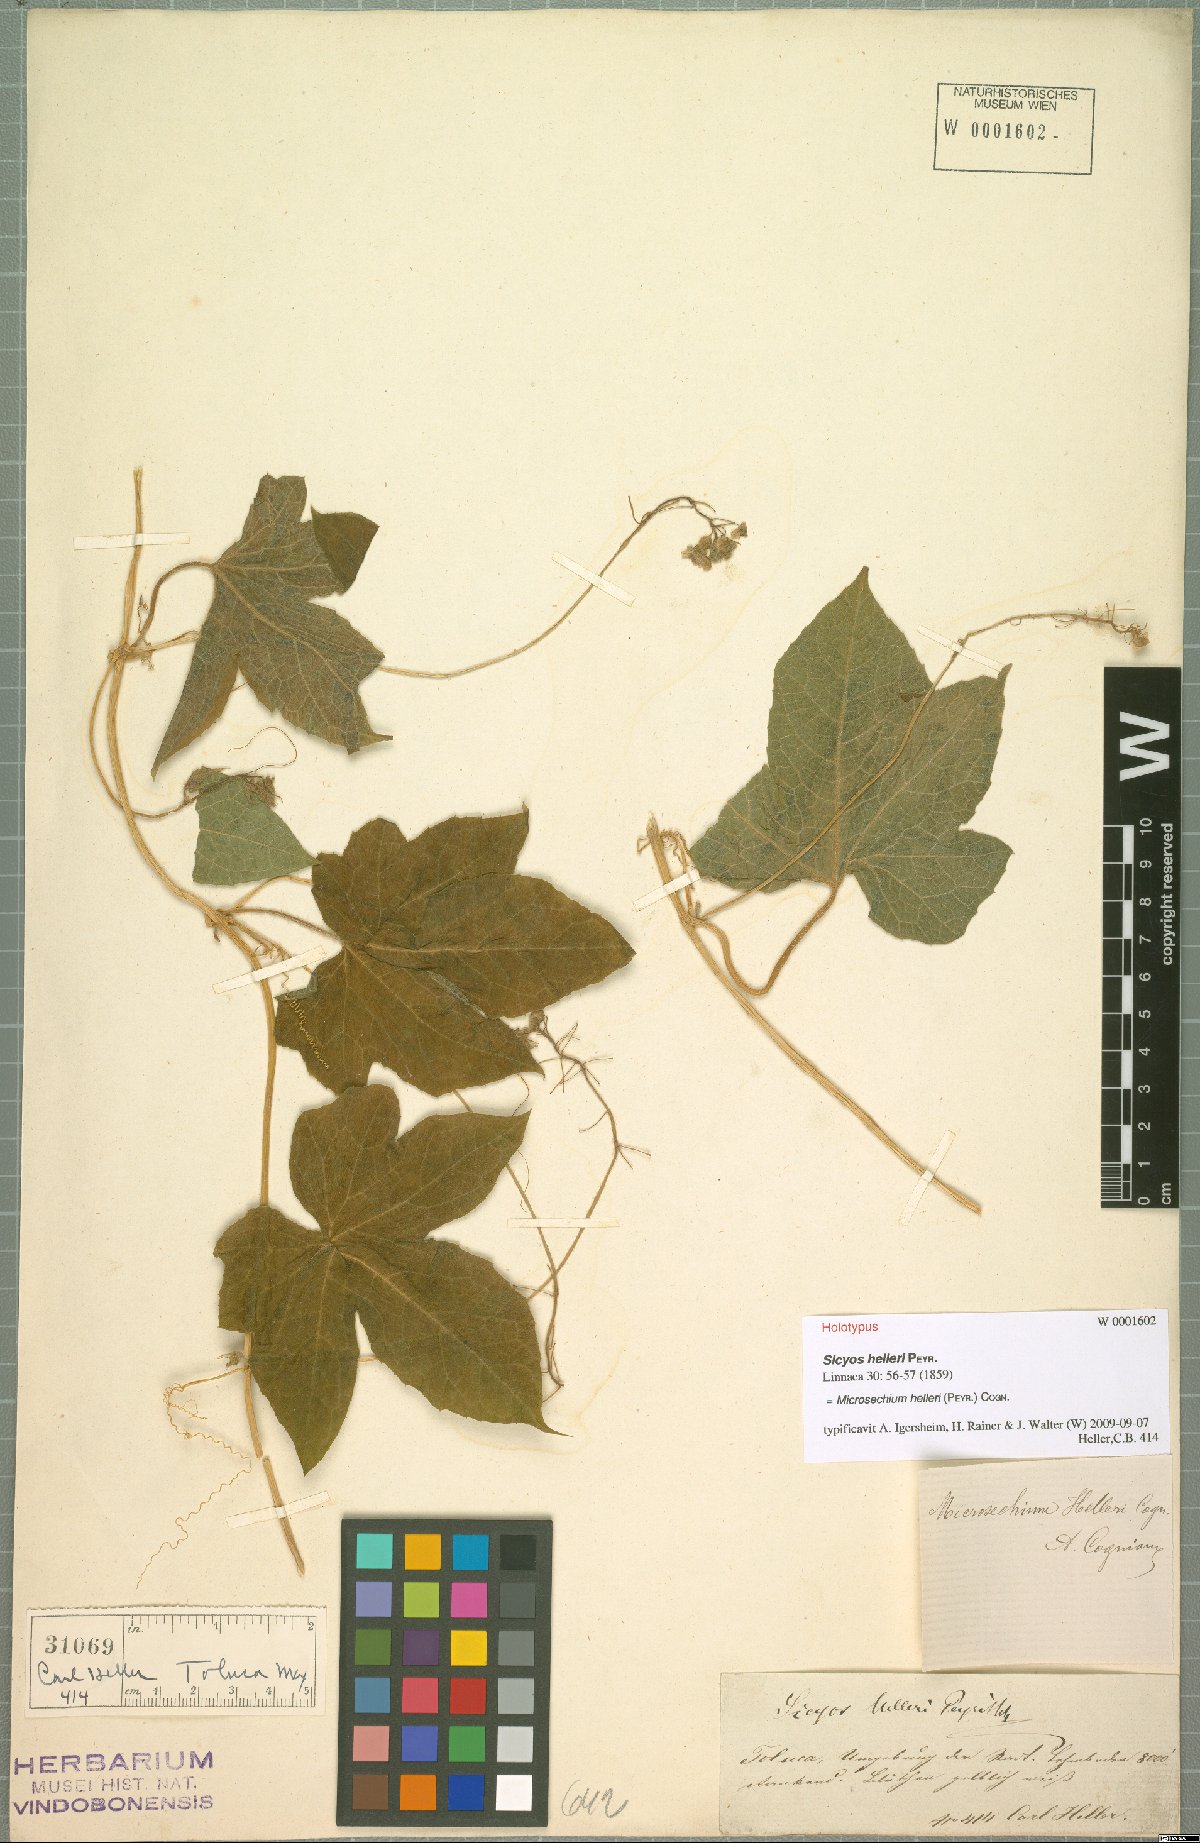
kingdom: Plantae
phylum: Tracheophyta
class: Magnoliopsida
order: Cucurbitales
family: Cucurbitaceae
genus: Microsechium
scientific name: Microsechium palmatum
